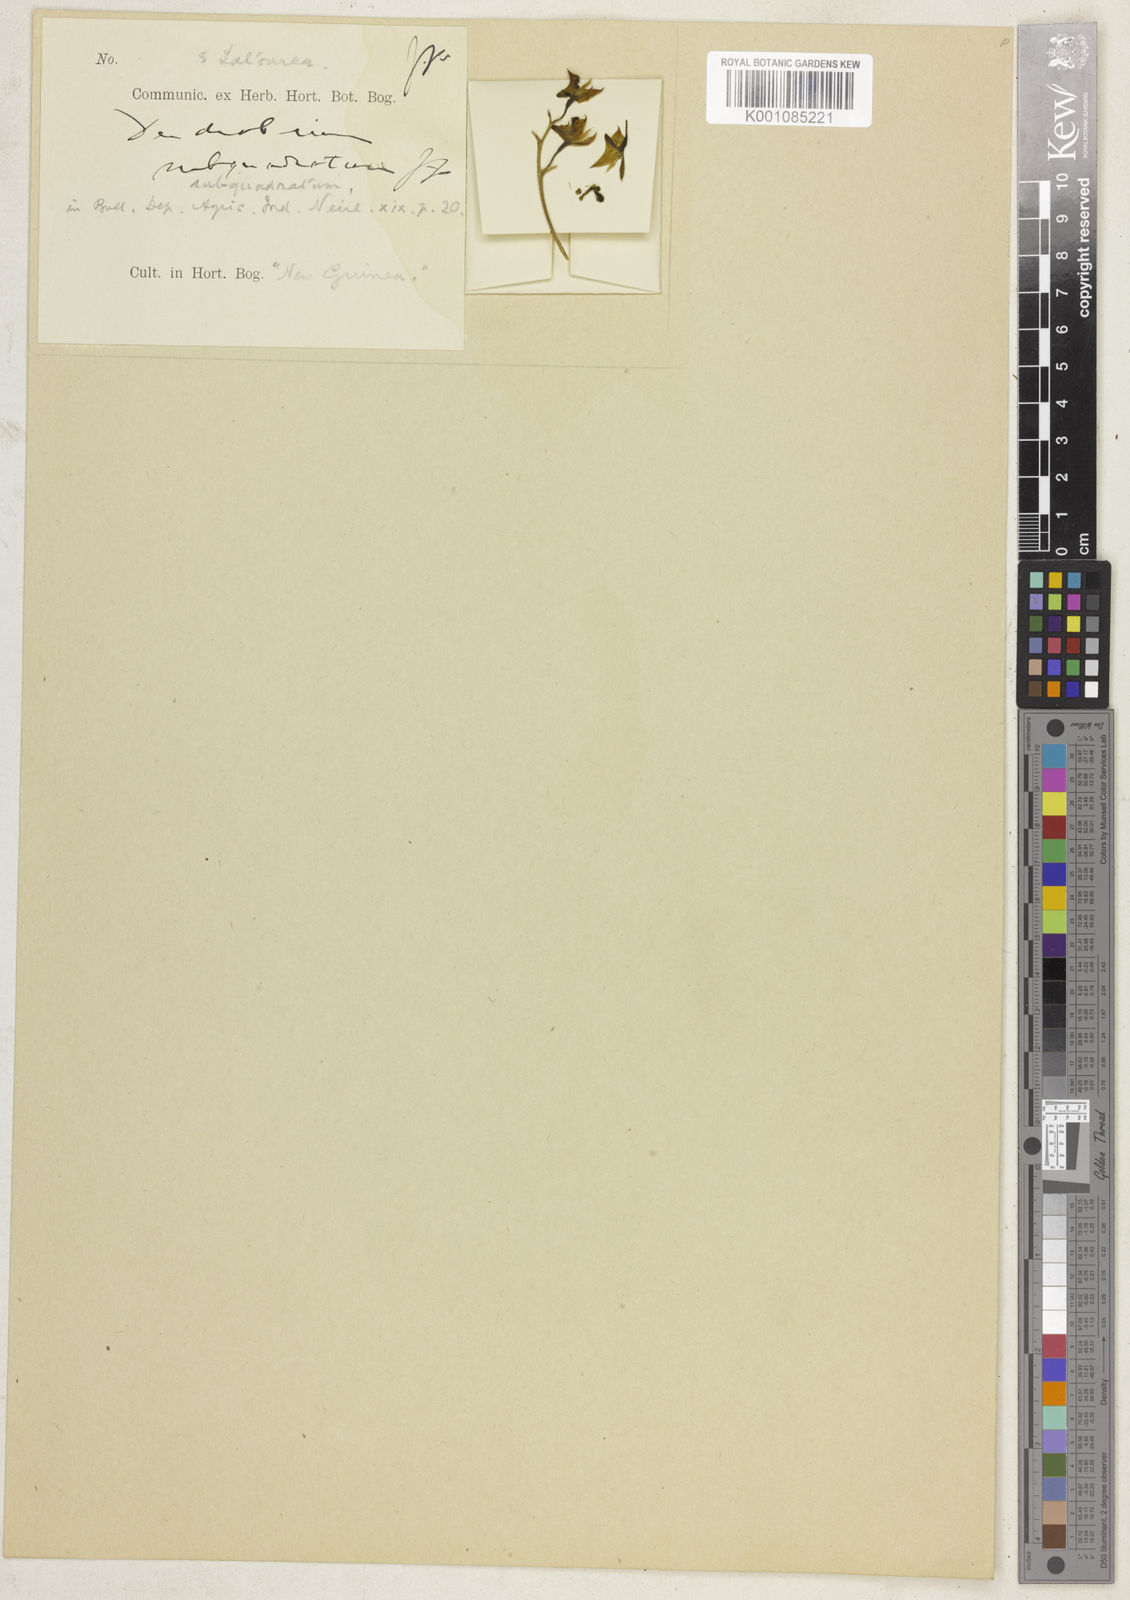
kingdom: Plantae
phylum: Tracheophyta
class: Liliopsida
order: Asparagales
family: Orchidaceae
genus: Dendrobium
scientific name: Dendrobium
